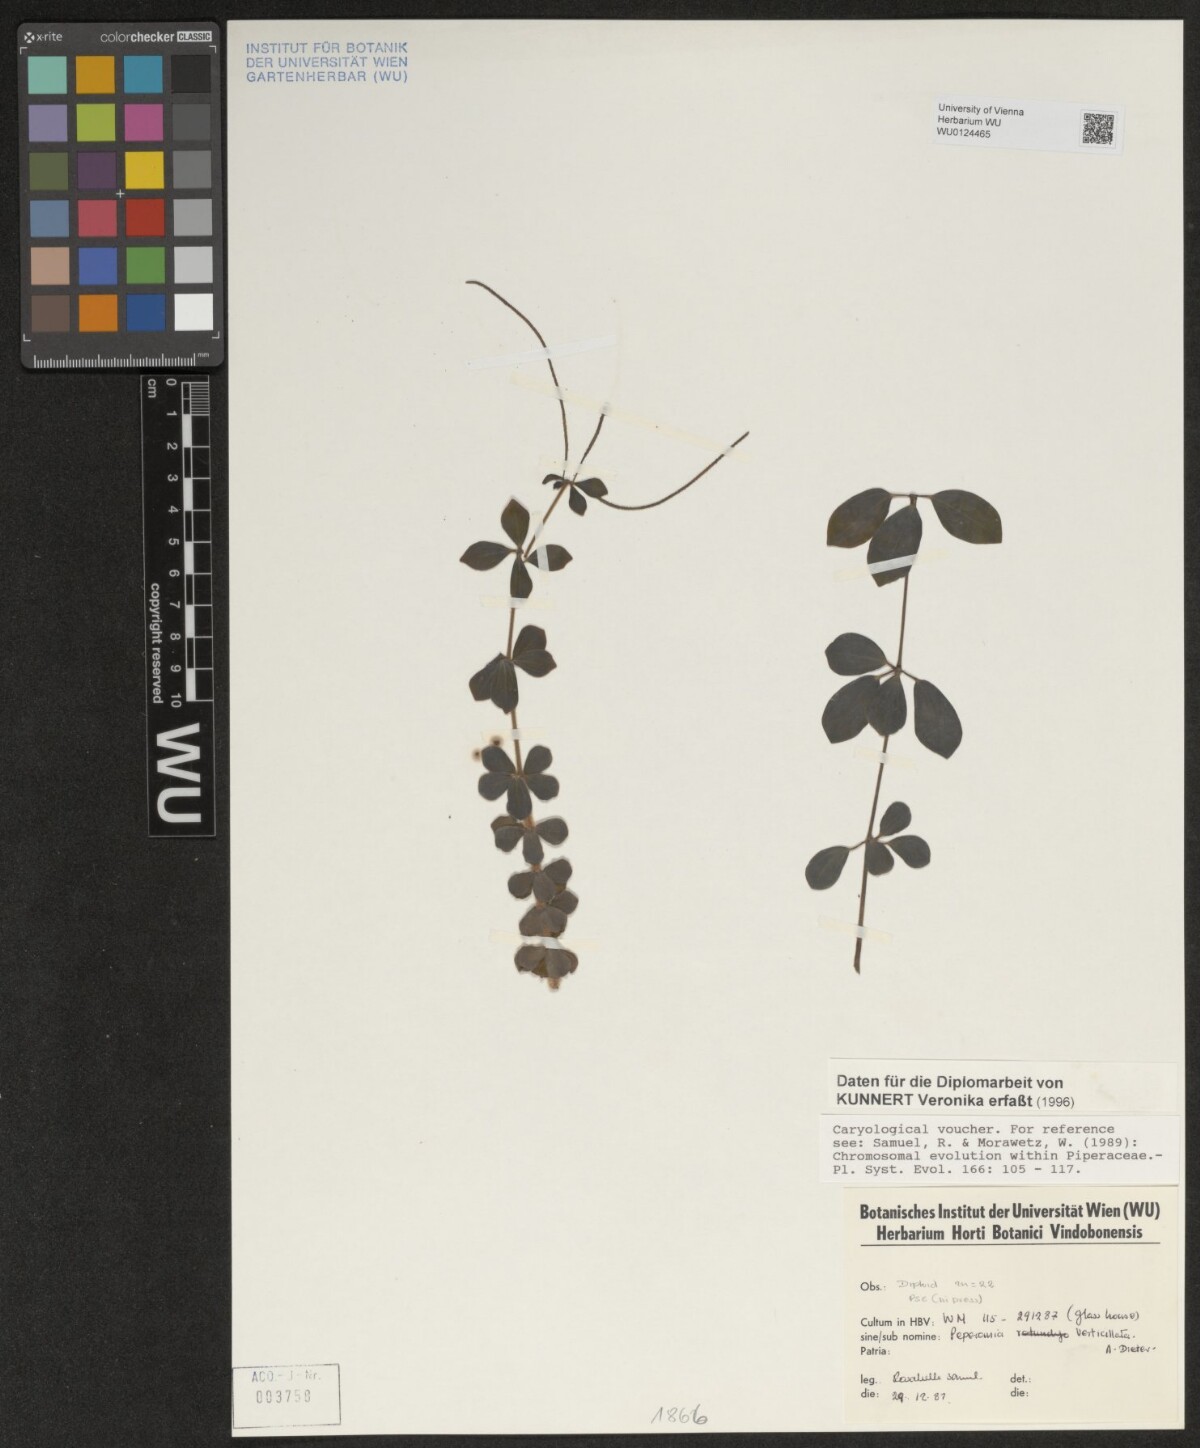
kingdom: Plantae
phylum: Tracheophyta
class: Magnoliopsida
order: Piperales
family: Piperaceae
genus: Peperomia
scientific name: Peperomia verticillata
